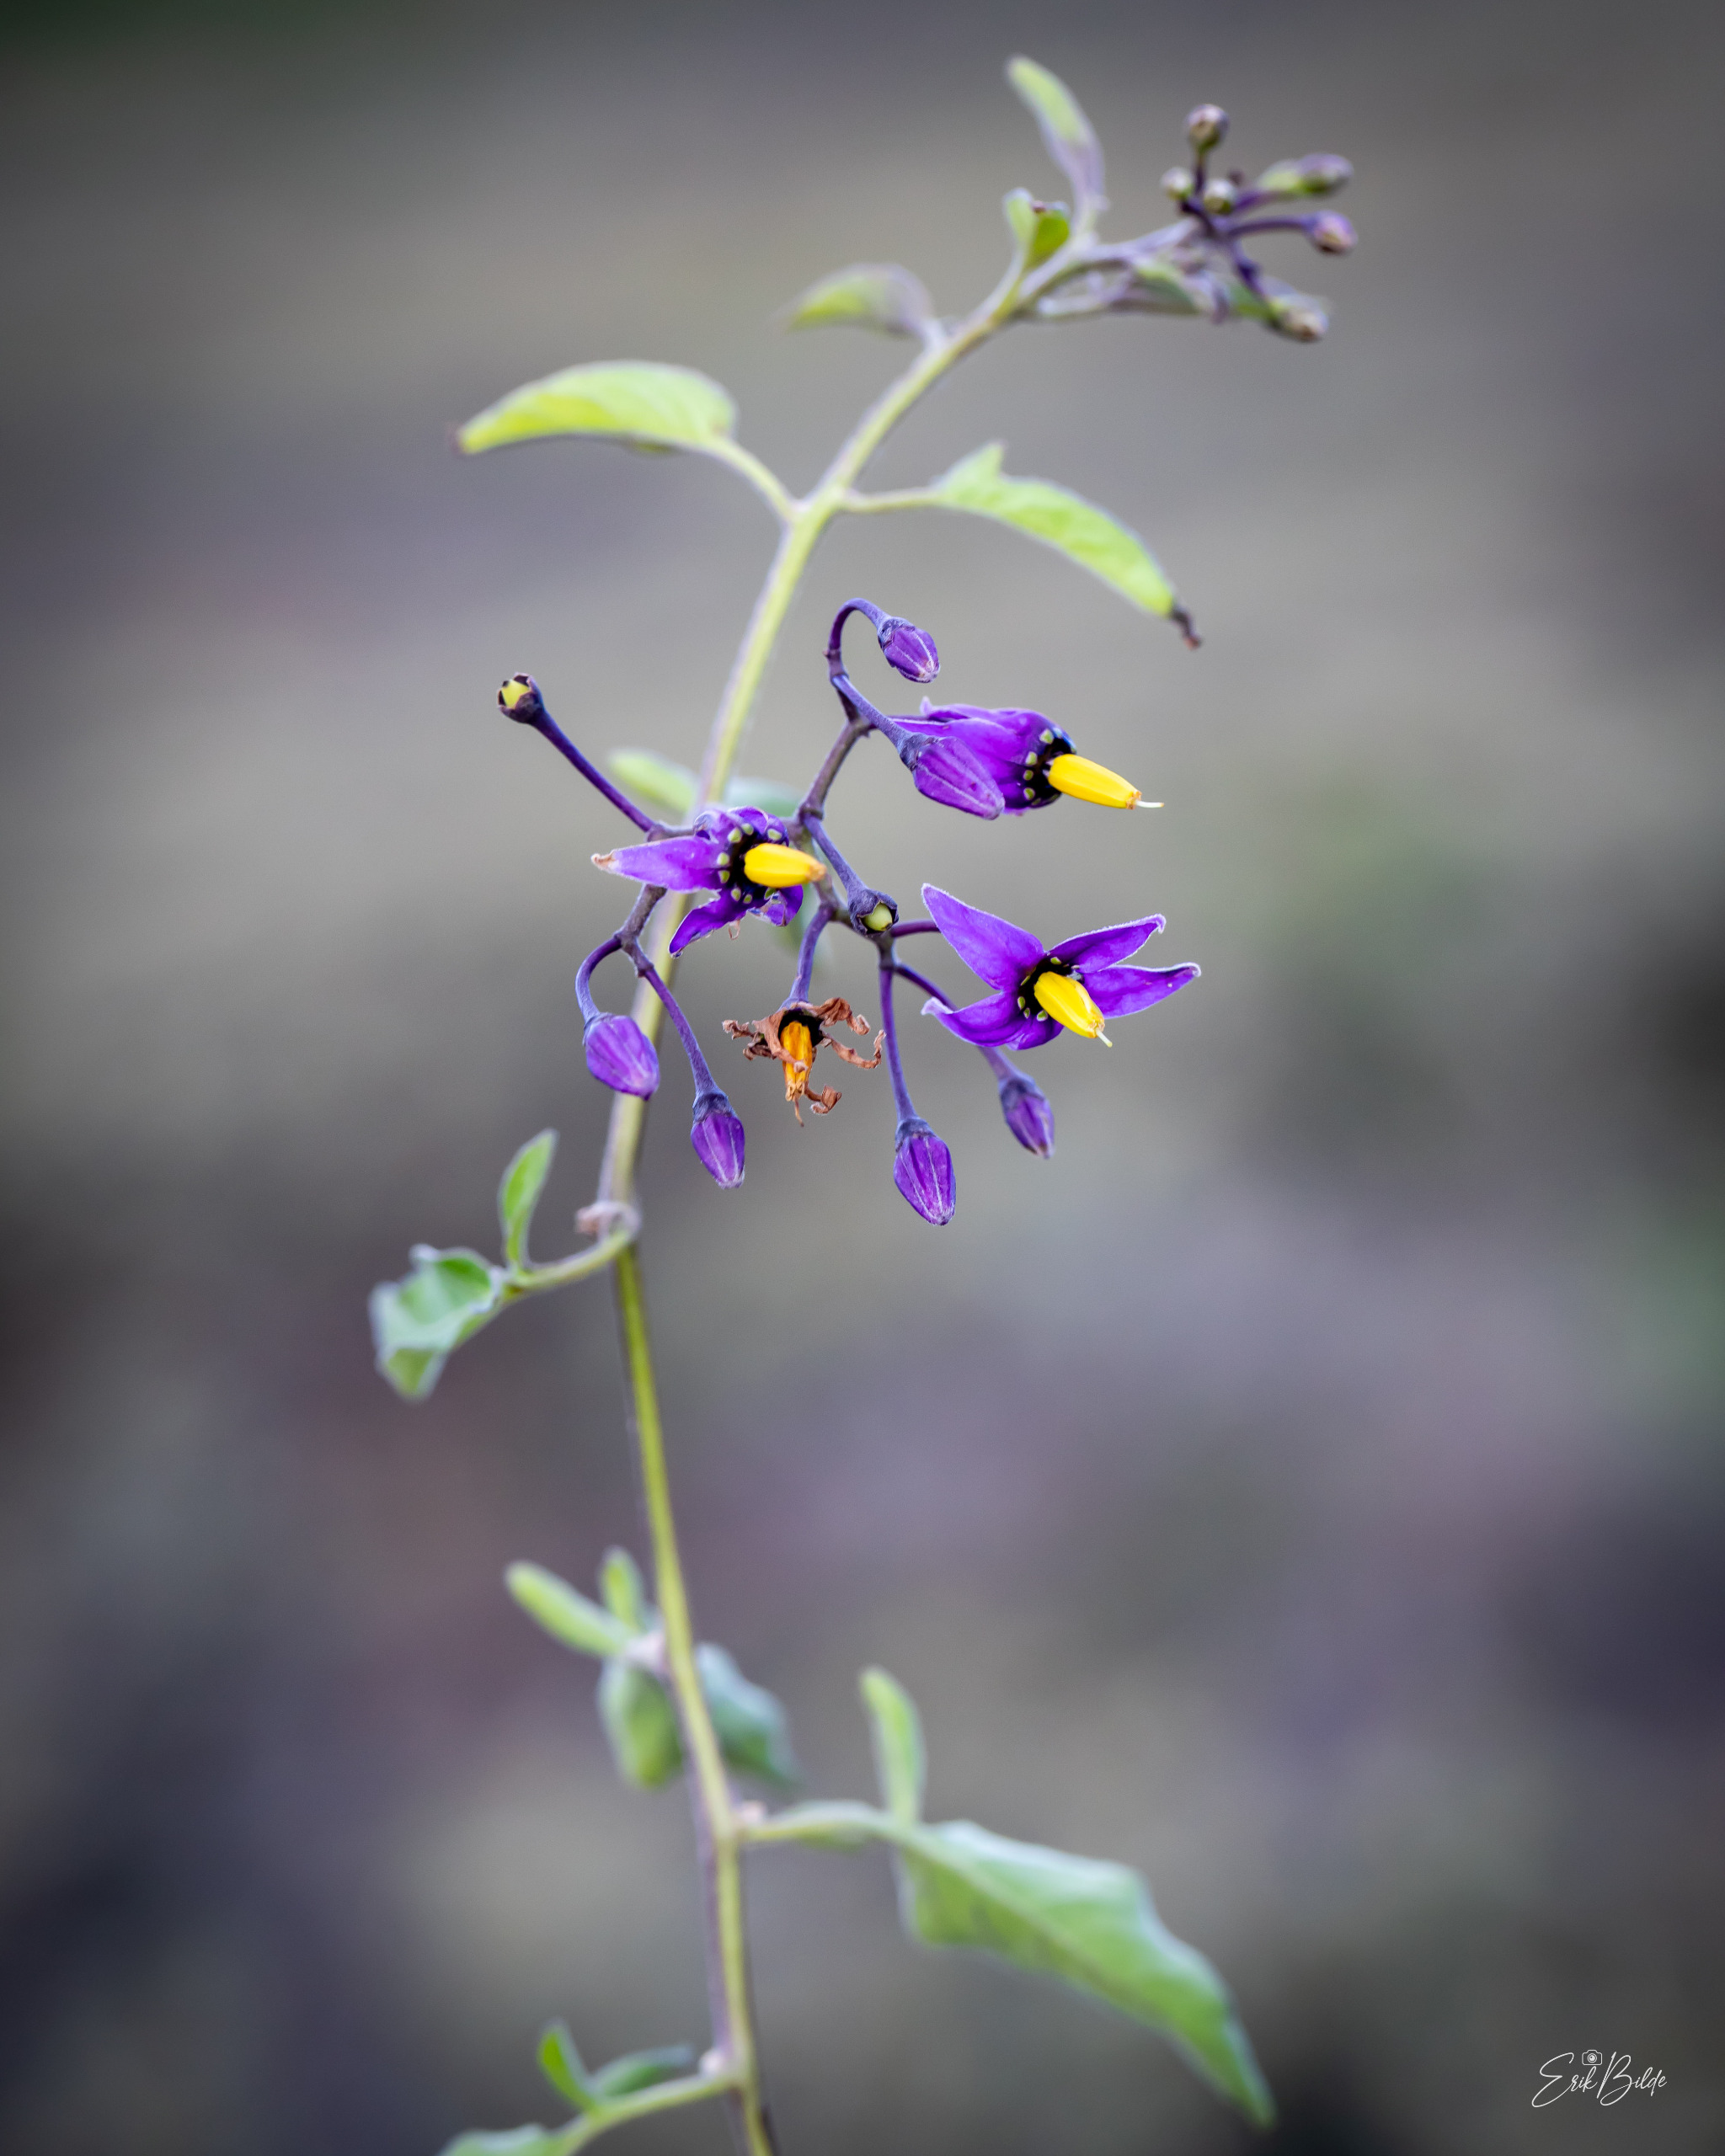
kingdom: Plantae
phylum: Tracheophyta
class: Magnoliopsida
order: Solanales
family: Solanaceae
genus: Solanum
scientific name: Solanum dulcamara
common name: Bittersød natskygge
